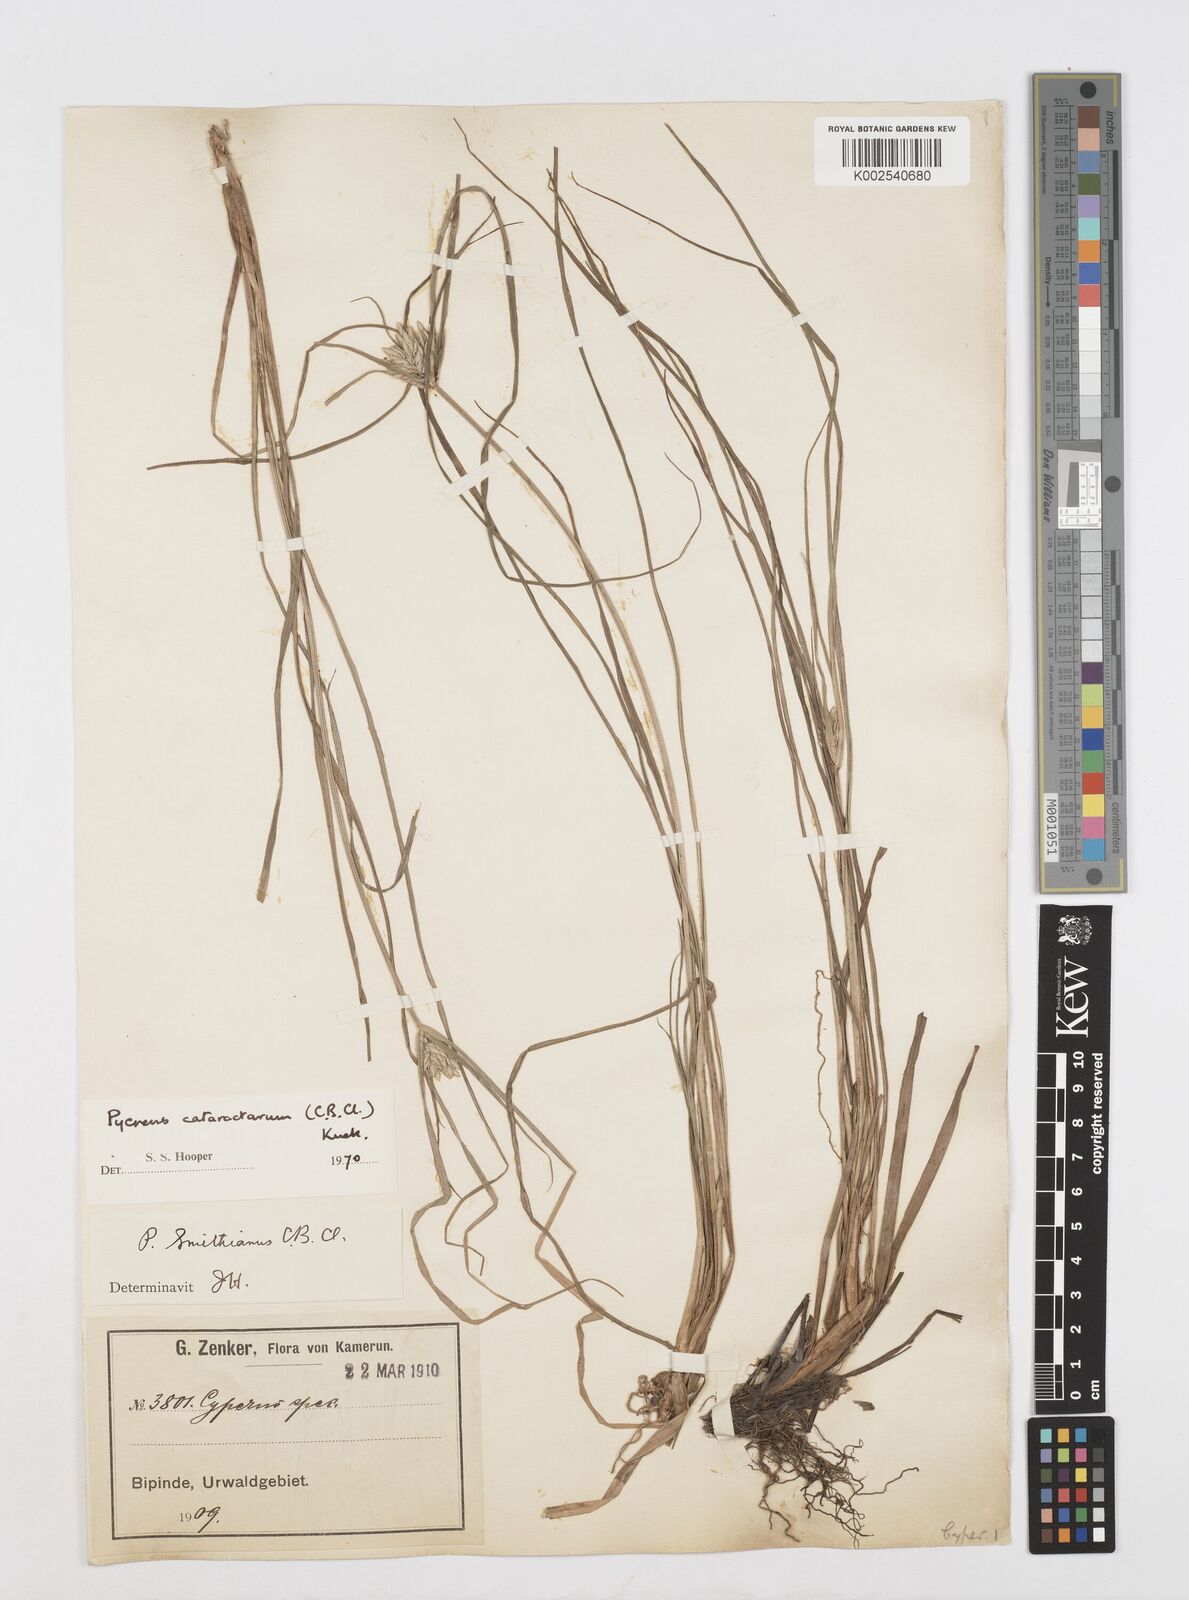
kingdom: Plantae
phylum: Tracheophyta
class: Liliopsida
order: Poales
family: Cyperaceae
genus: Cyperus
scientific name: Cyperus cataractarum
